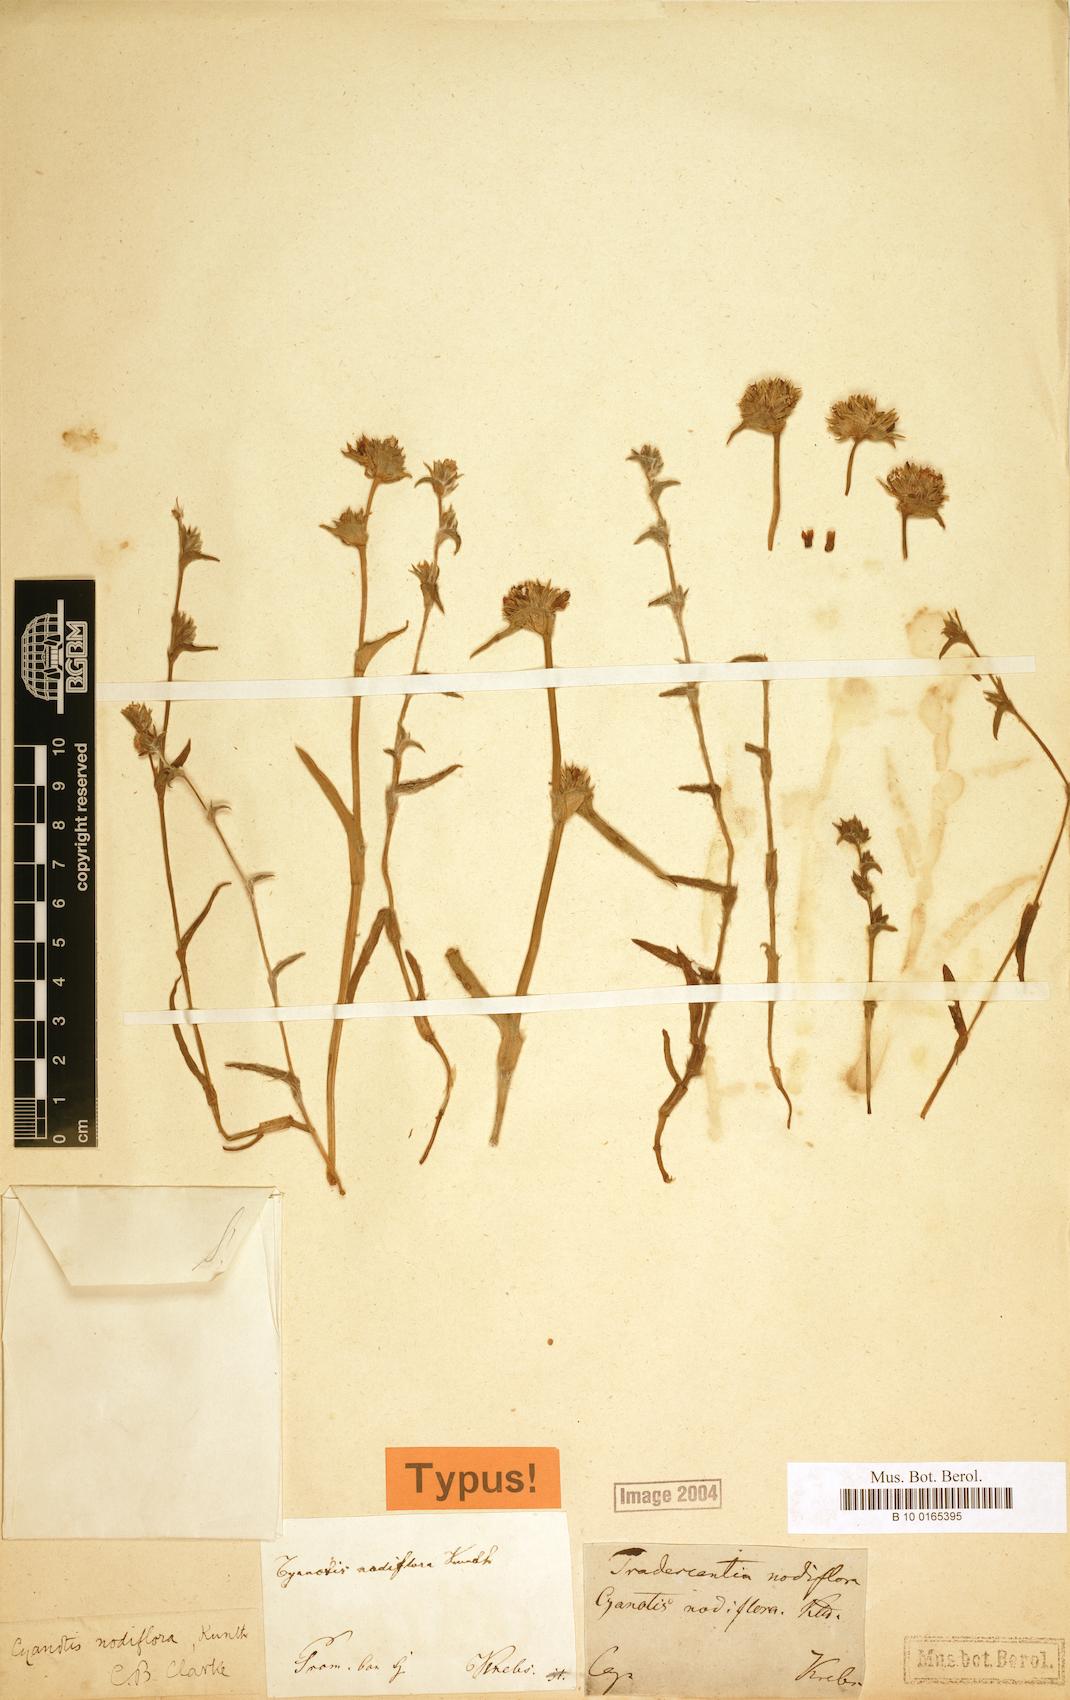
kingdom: Plantae
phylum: Tracheophyta
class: Liliopsida
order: Commelinales
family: Commelinaceae
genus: Cyanotis
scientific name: Cyanotis speciosa
